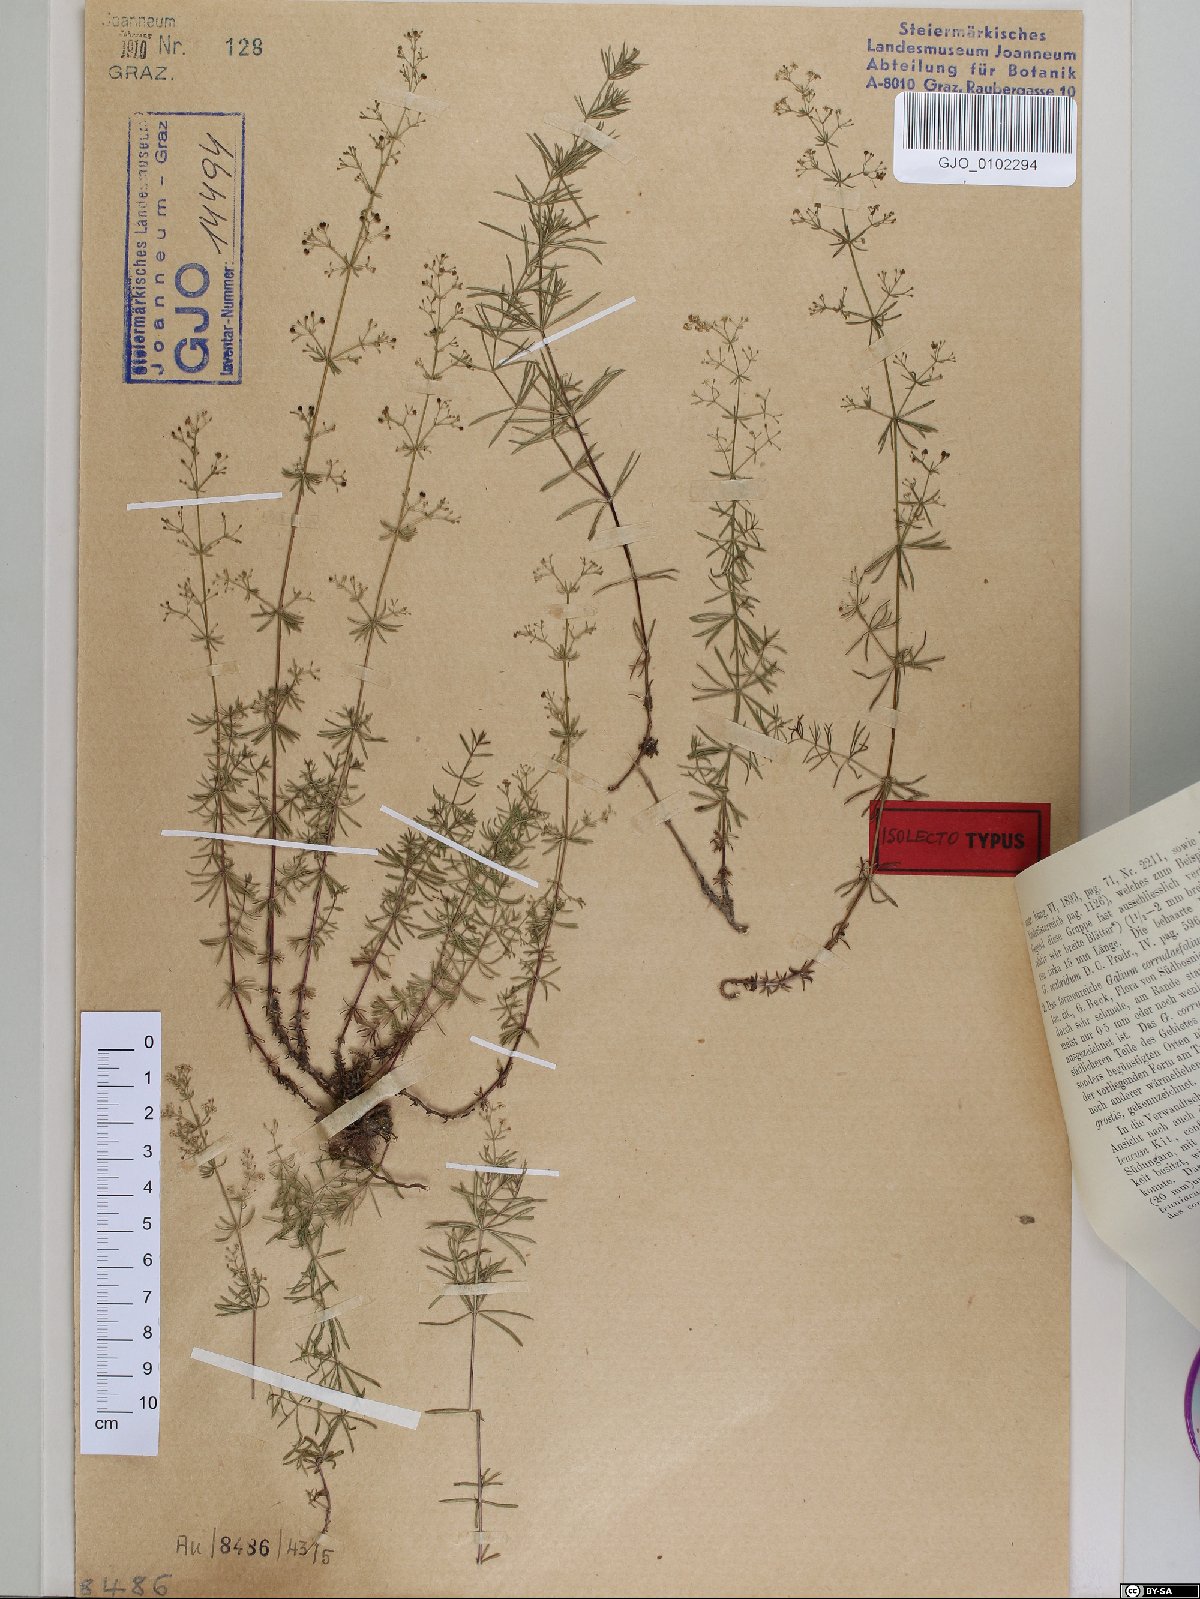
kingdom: Plantae
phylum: Tracheophyta
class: Magnoliopsida
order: Gentianales
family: Rubiaceae
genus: Galium
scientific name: Galium truniacum
